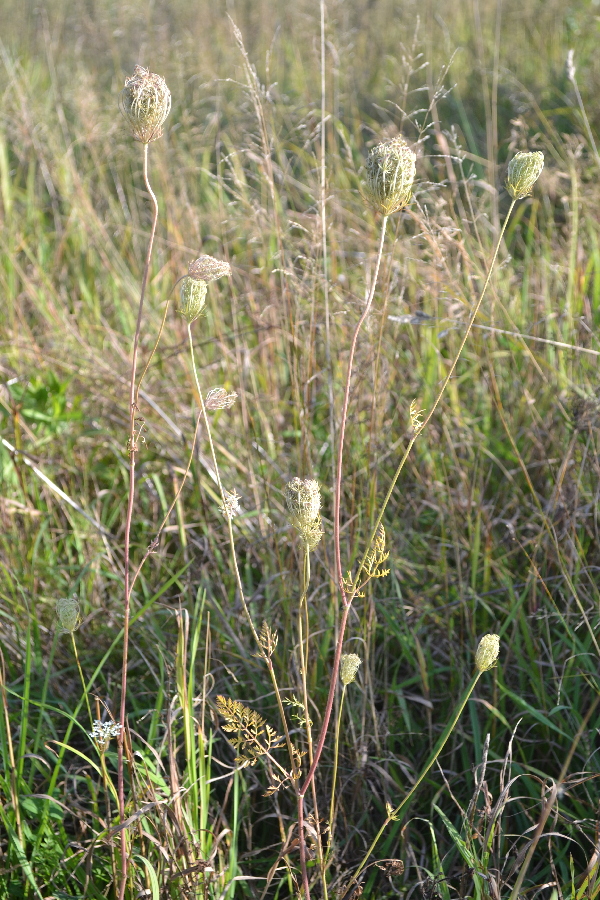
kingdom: Plantae
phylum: Tracheophyta
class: Magnoliopsida
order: Apiales
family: Apiaceae
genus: Ligusticum
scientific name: Ligusticum scothicum
